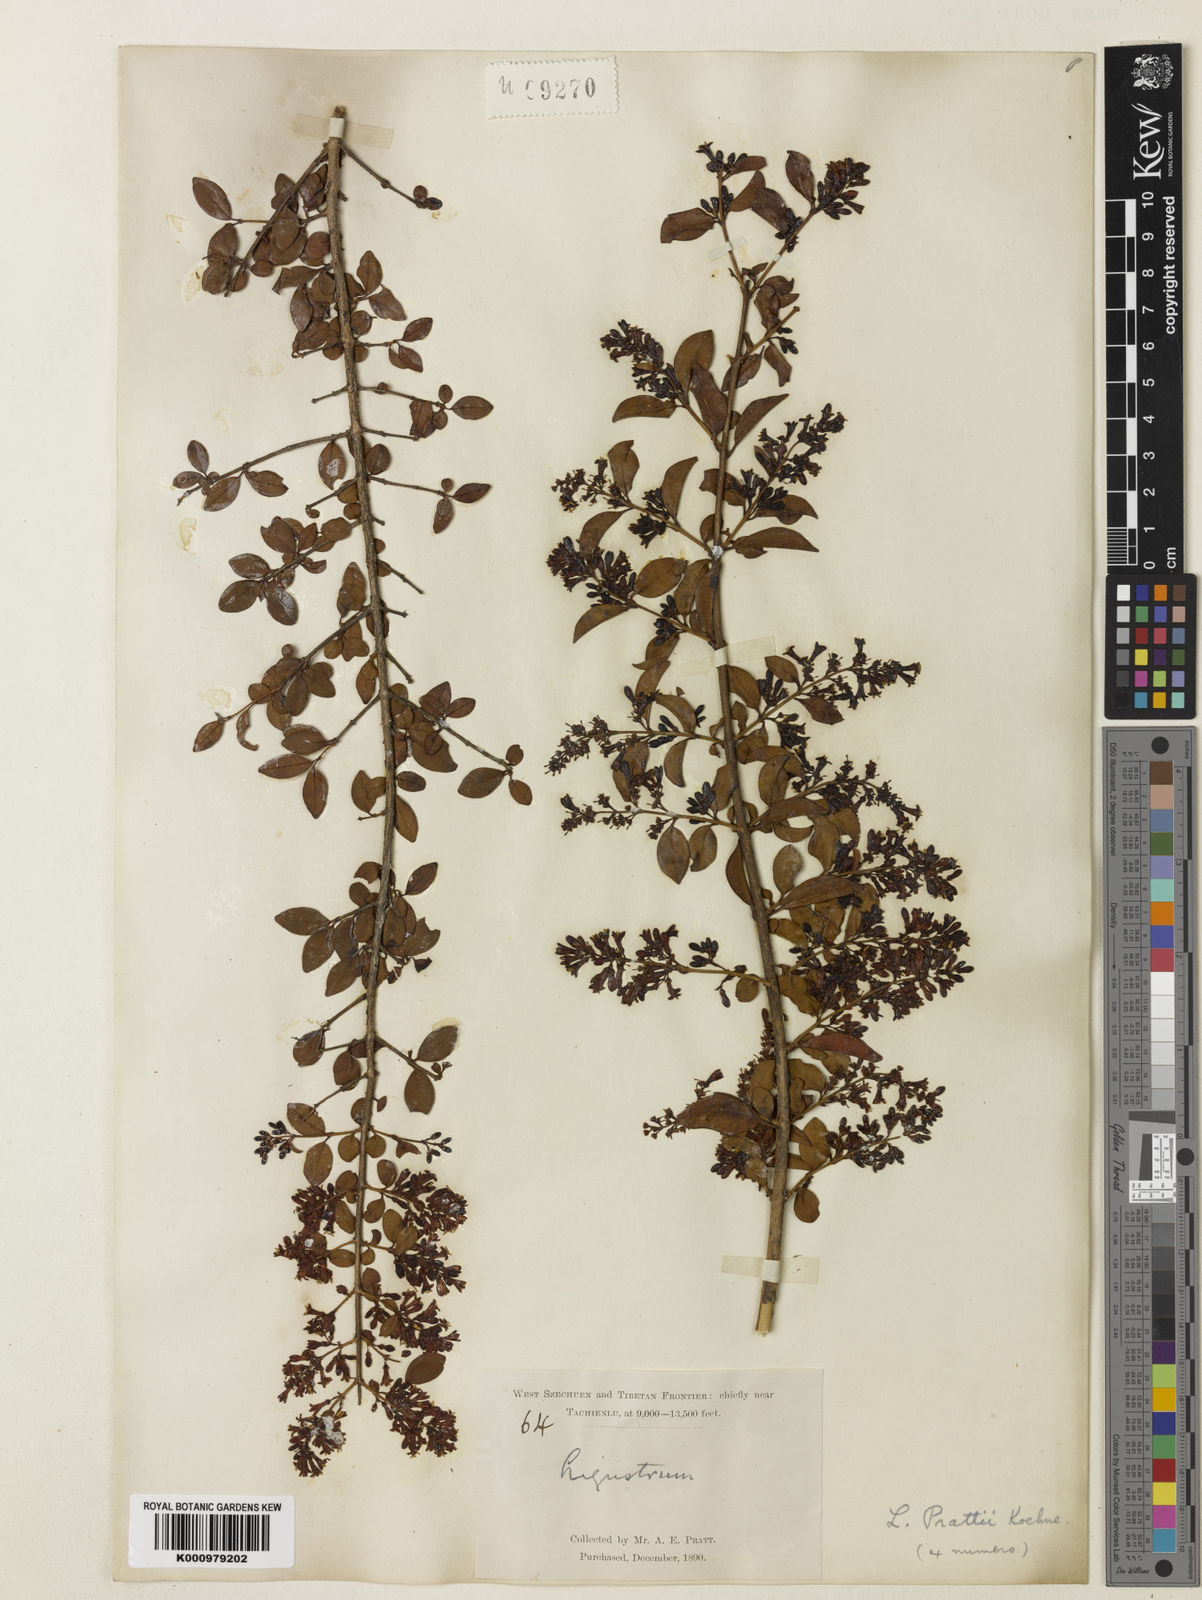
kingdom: Plantae
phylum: Tracheophyta
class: Magnoliopsida
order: Lamiales
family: Oleaceae
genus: Ligustrum
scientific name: Ligustrum delavayanum
